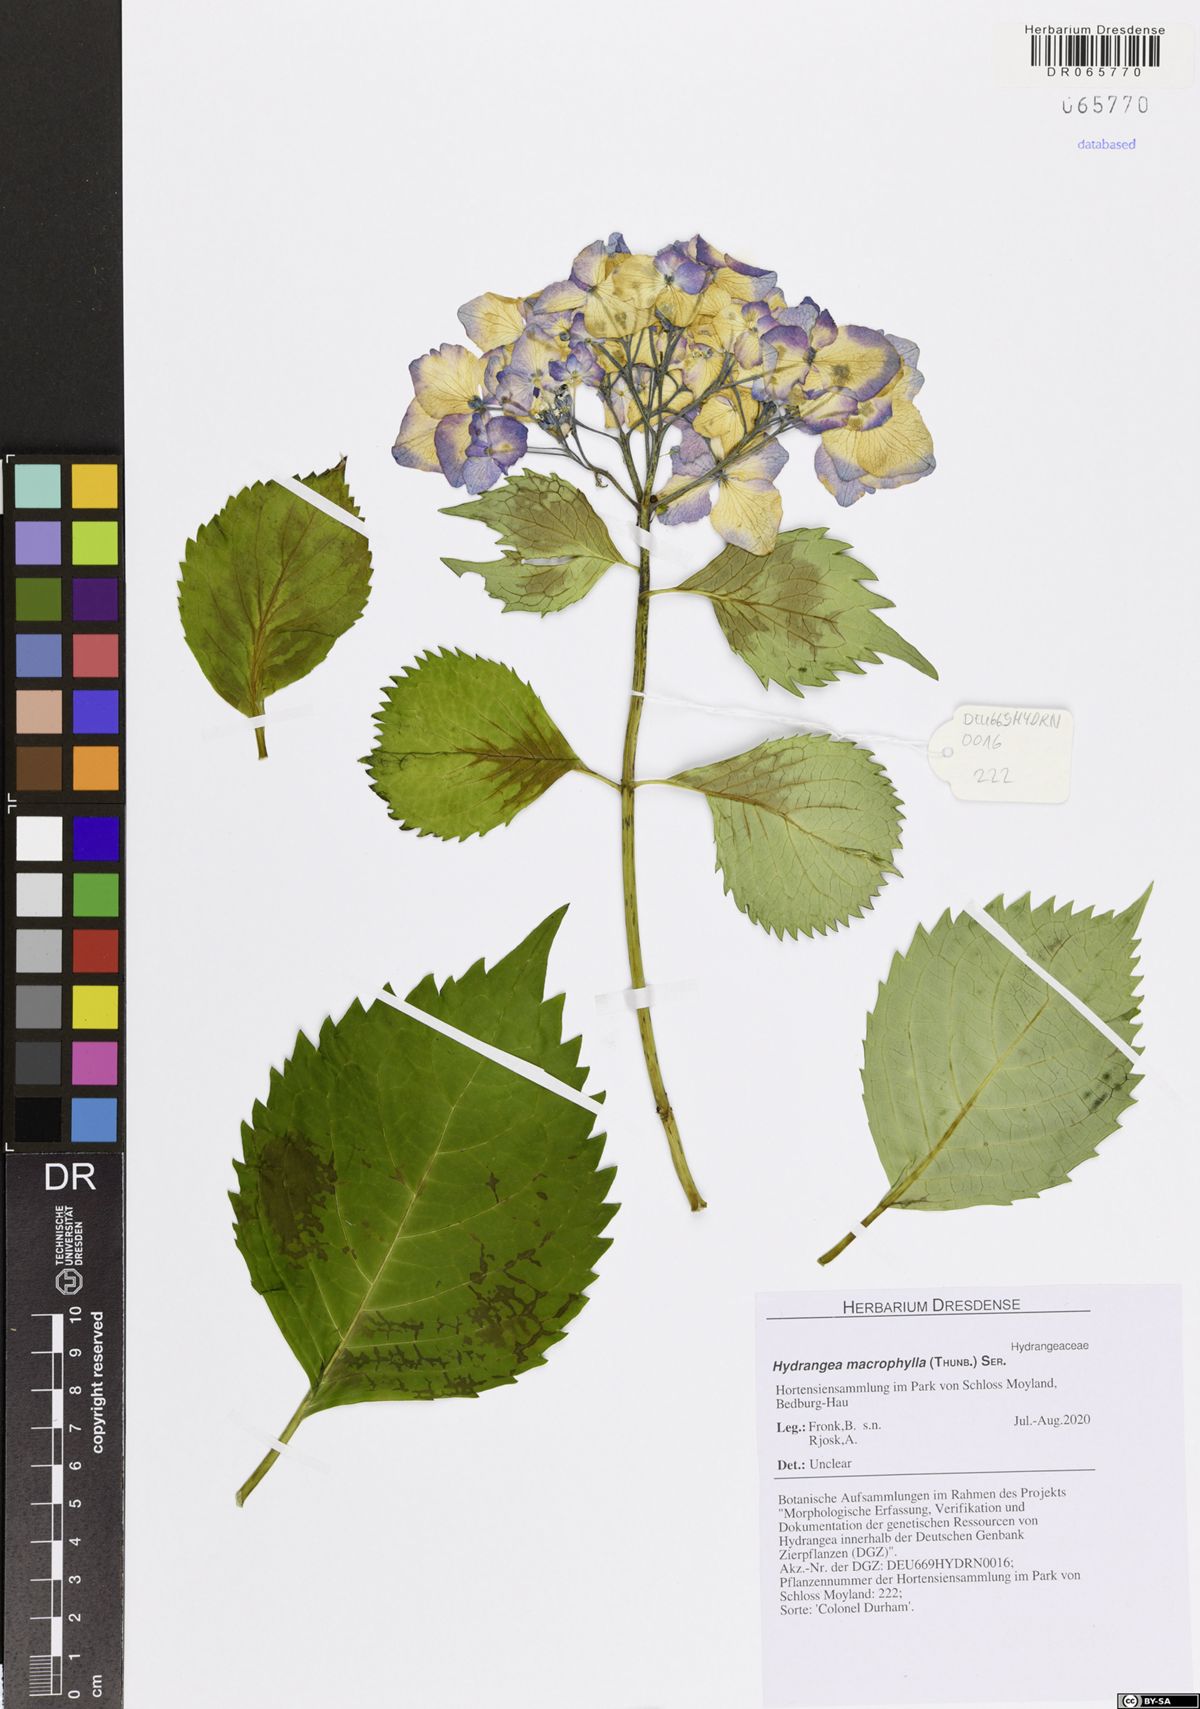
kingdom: Plantae
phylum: Tracheophyta
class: Magnoliopsida
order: Cornales
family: Hydrangeaceae
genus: Hydrangea
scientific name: Hydrangea macrophylla
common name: Hydrangea
